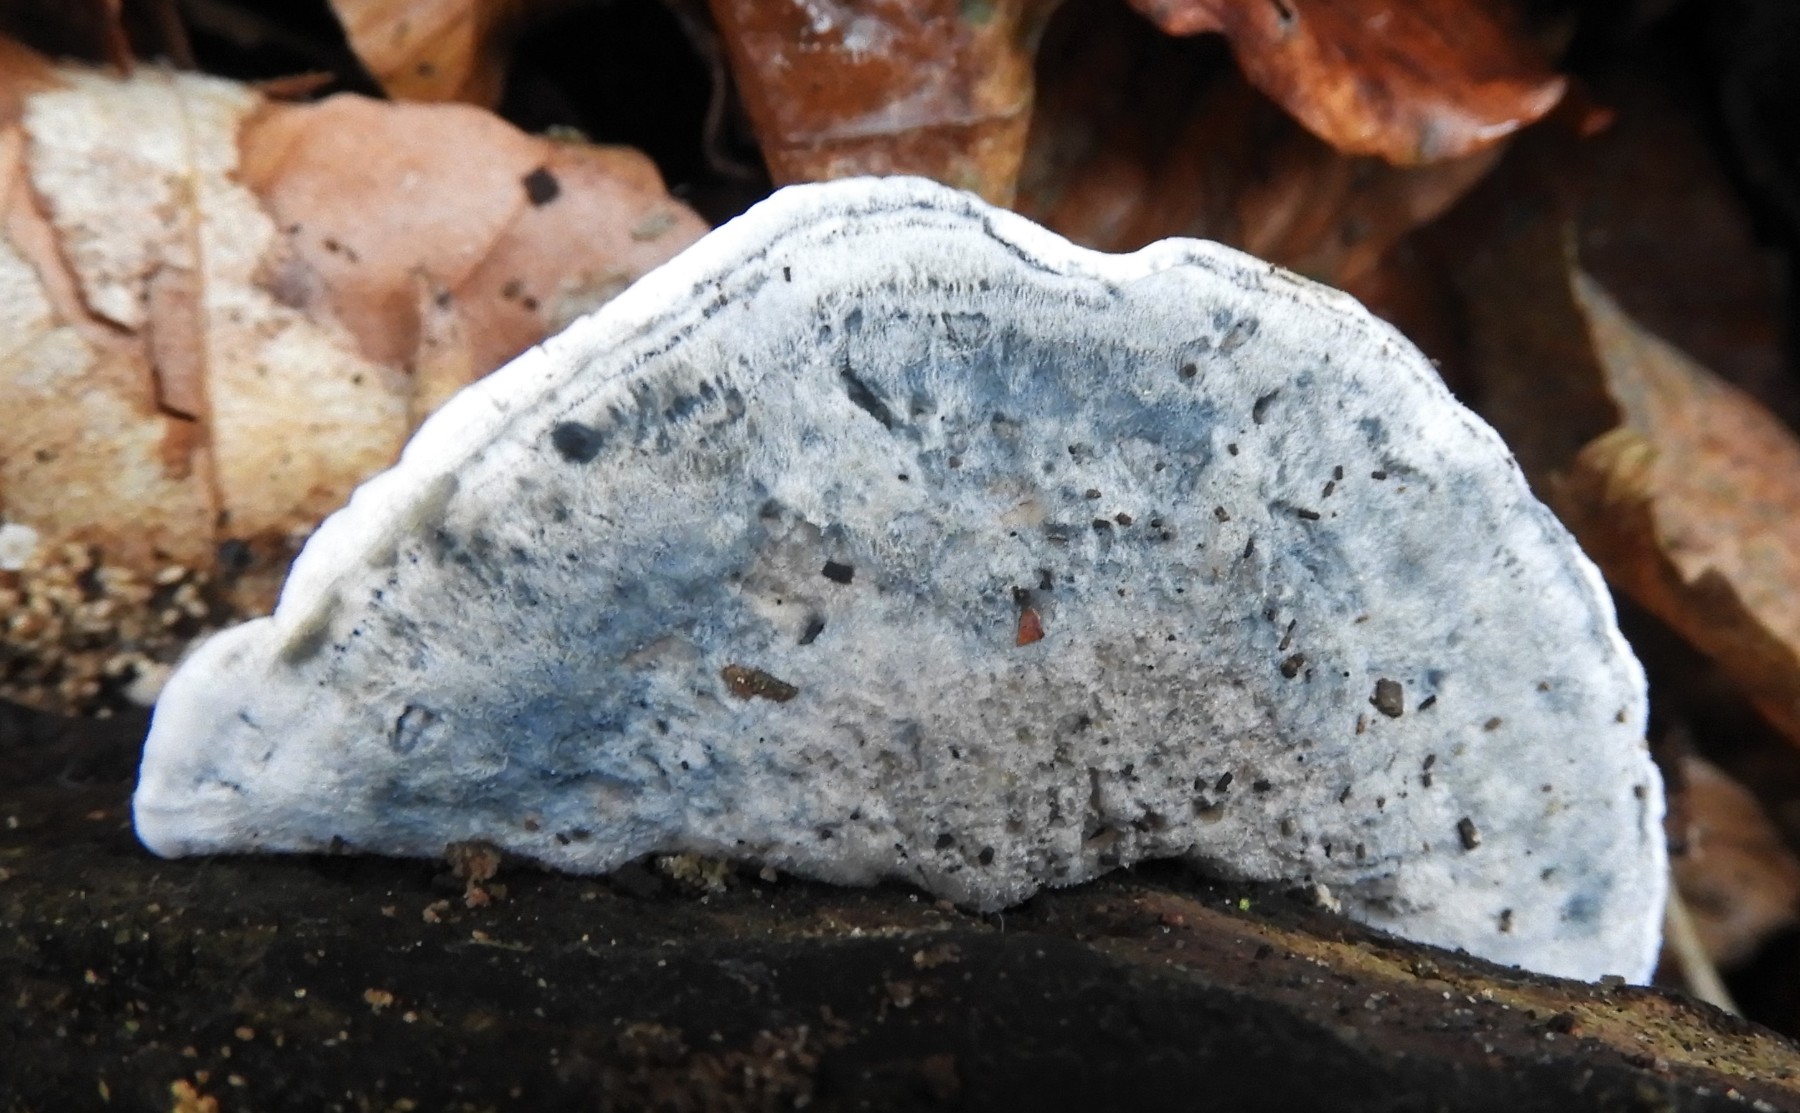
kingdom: Fungi
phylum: Basidiomycota
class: Agaricomycetes
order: Polyporales
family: Polyporaceae
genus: Cyanosporus
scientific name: Cyanosporus caesius
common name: blålig kødporesvamp
